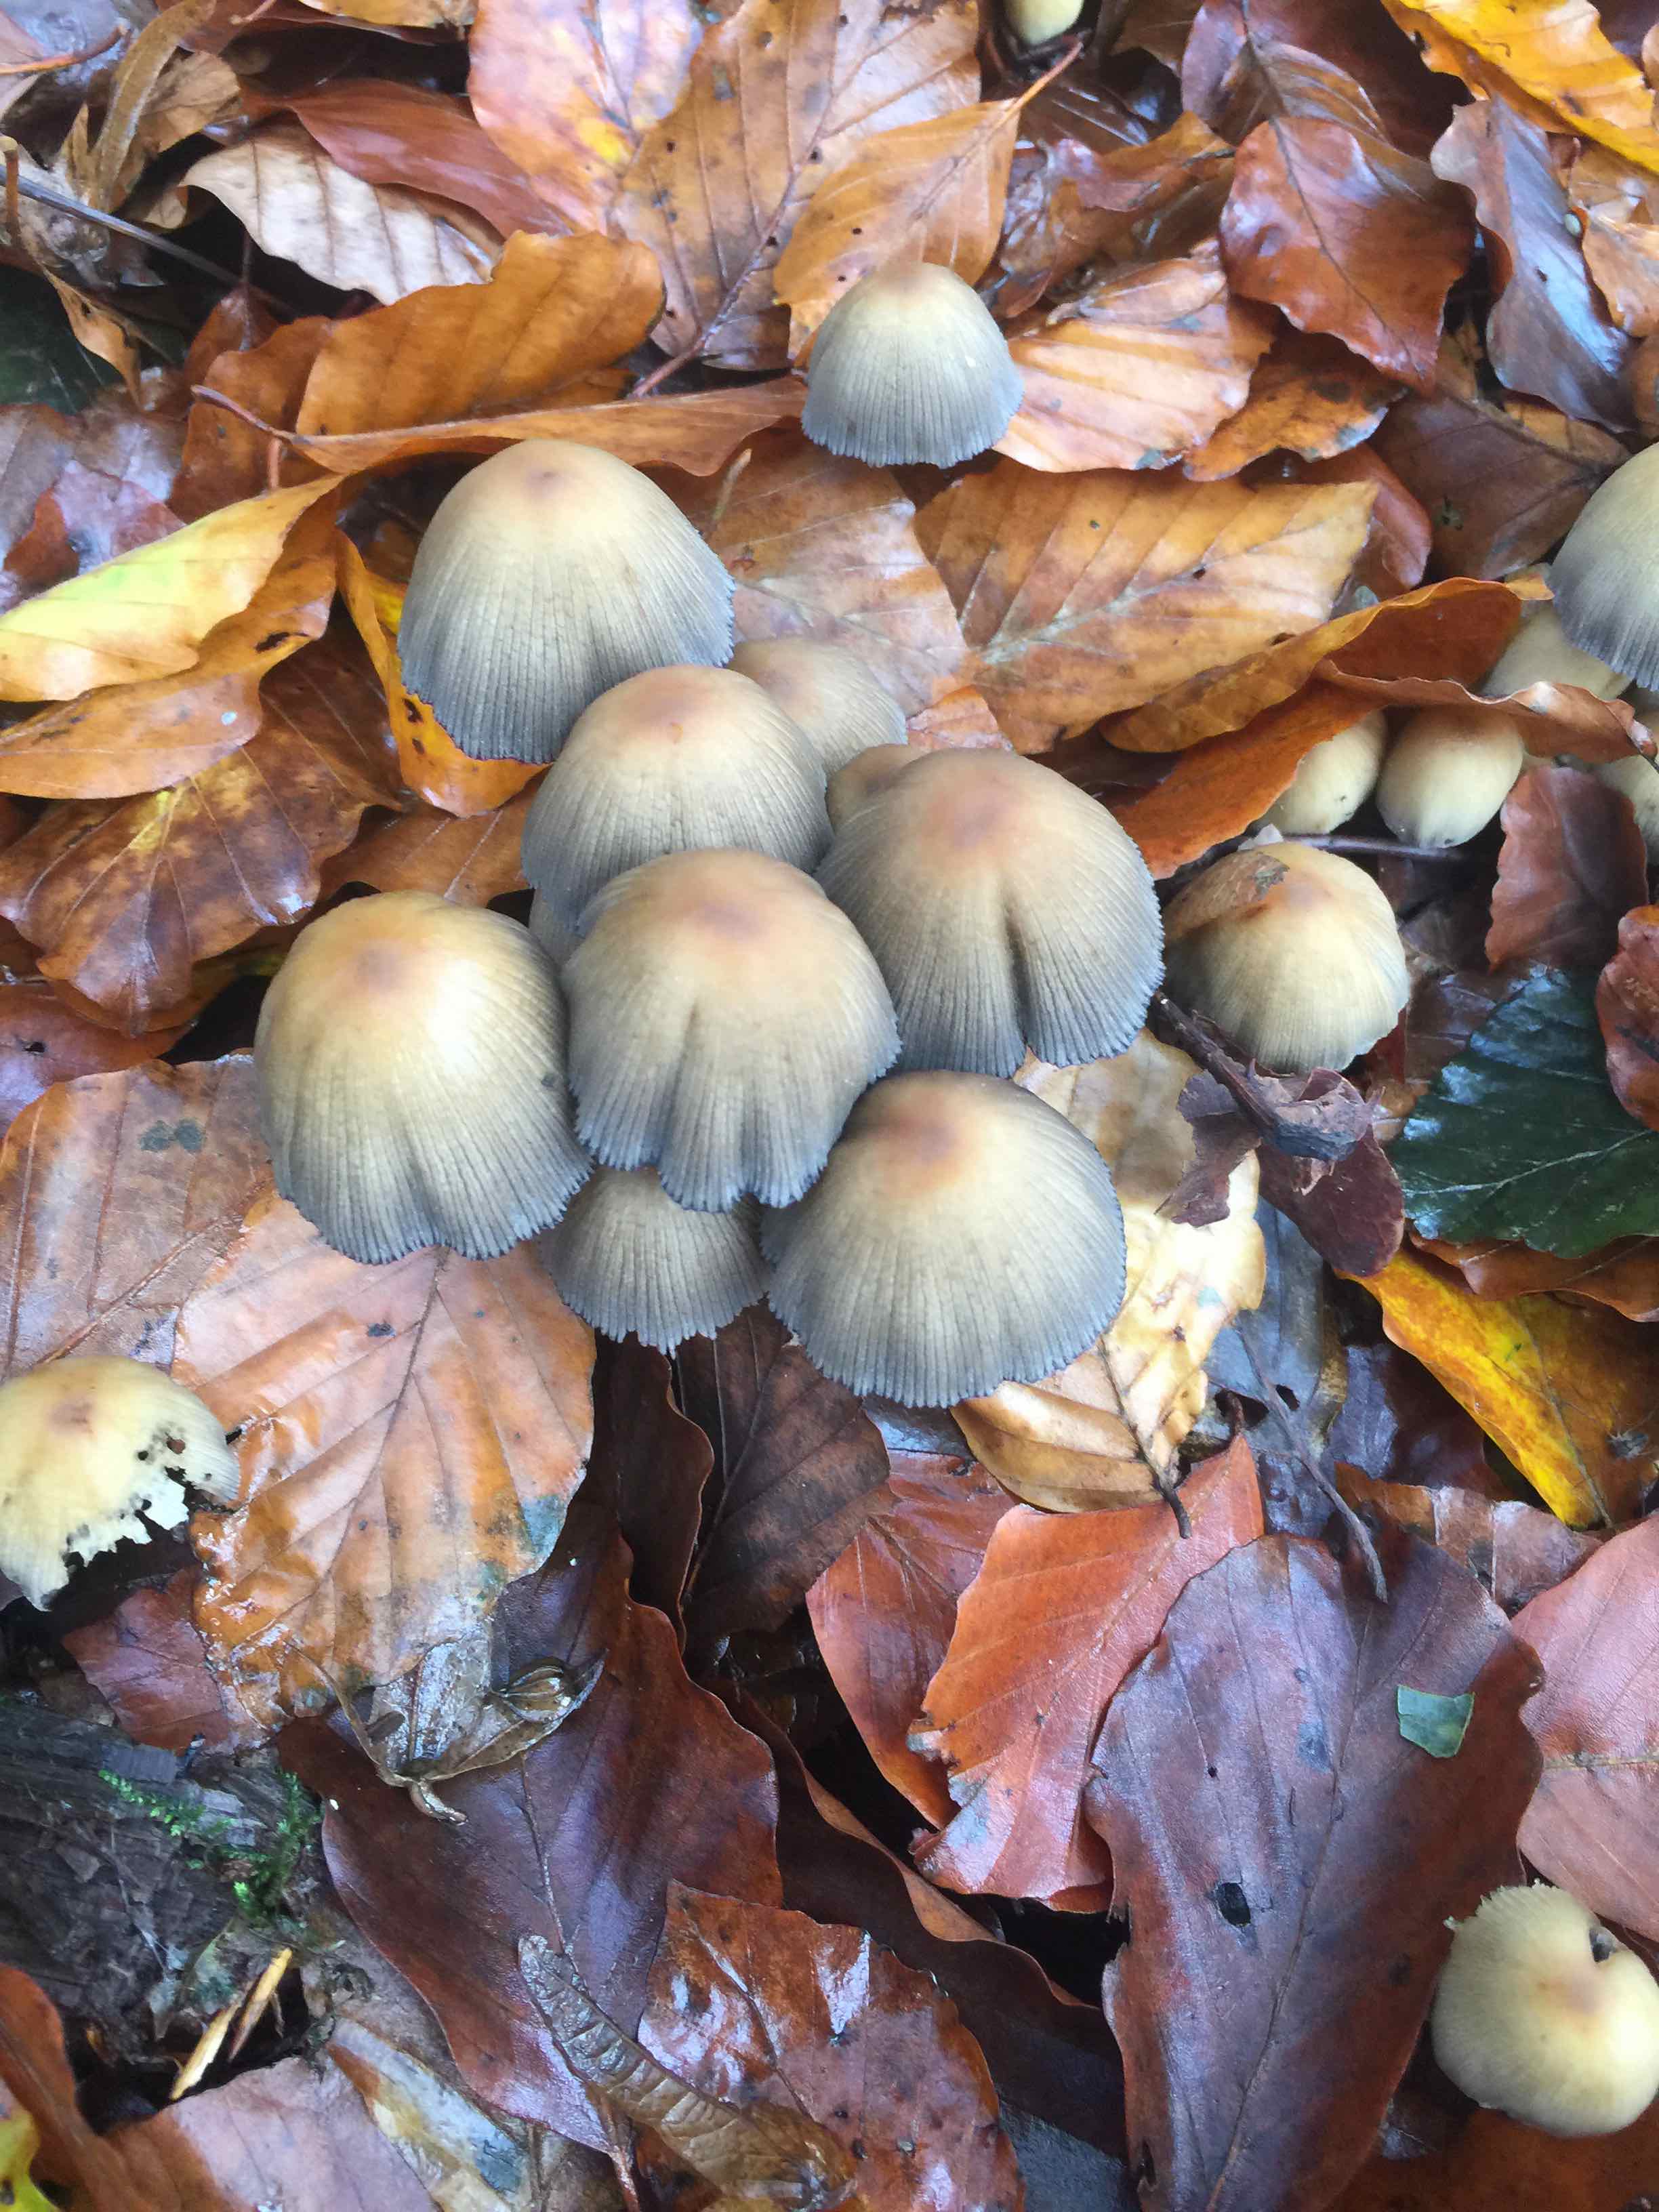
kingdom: Fungi
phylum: Basidiomycota
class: Agaricomycetes
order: Agaricales
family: Psathyrellaceae
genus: Coprinellus
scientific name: Coprinellus micaceus
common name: glimmer-blækhat
